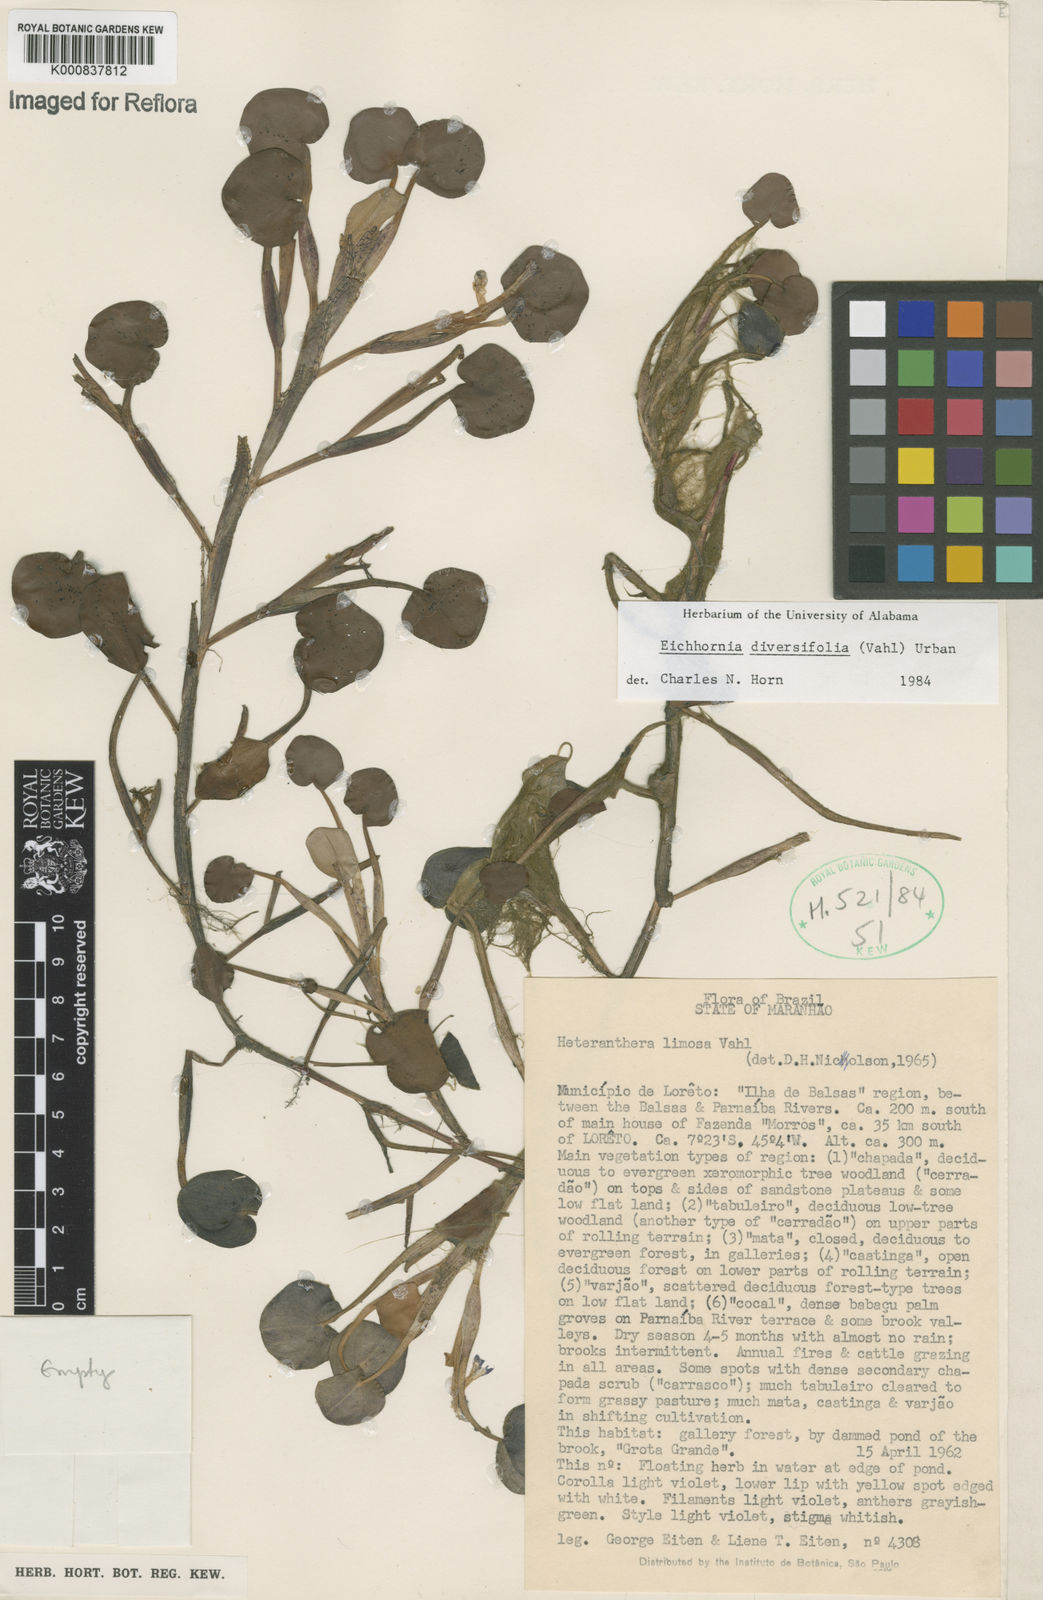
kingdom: Plantae
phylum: Tracheophyta
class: Liliopsida
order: Commelinales
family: Pontederiaceae
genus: Pontederia
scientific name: Pontederia diversifolia
